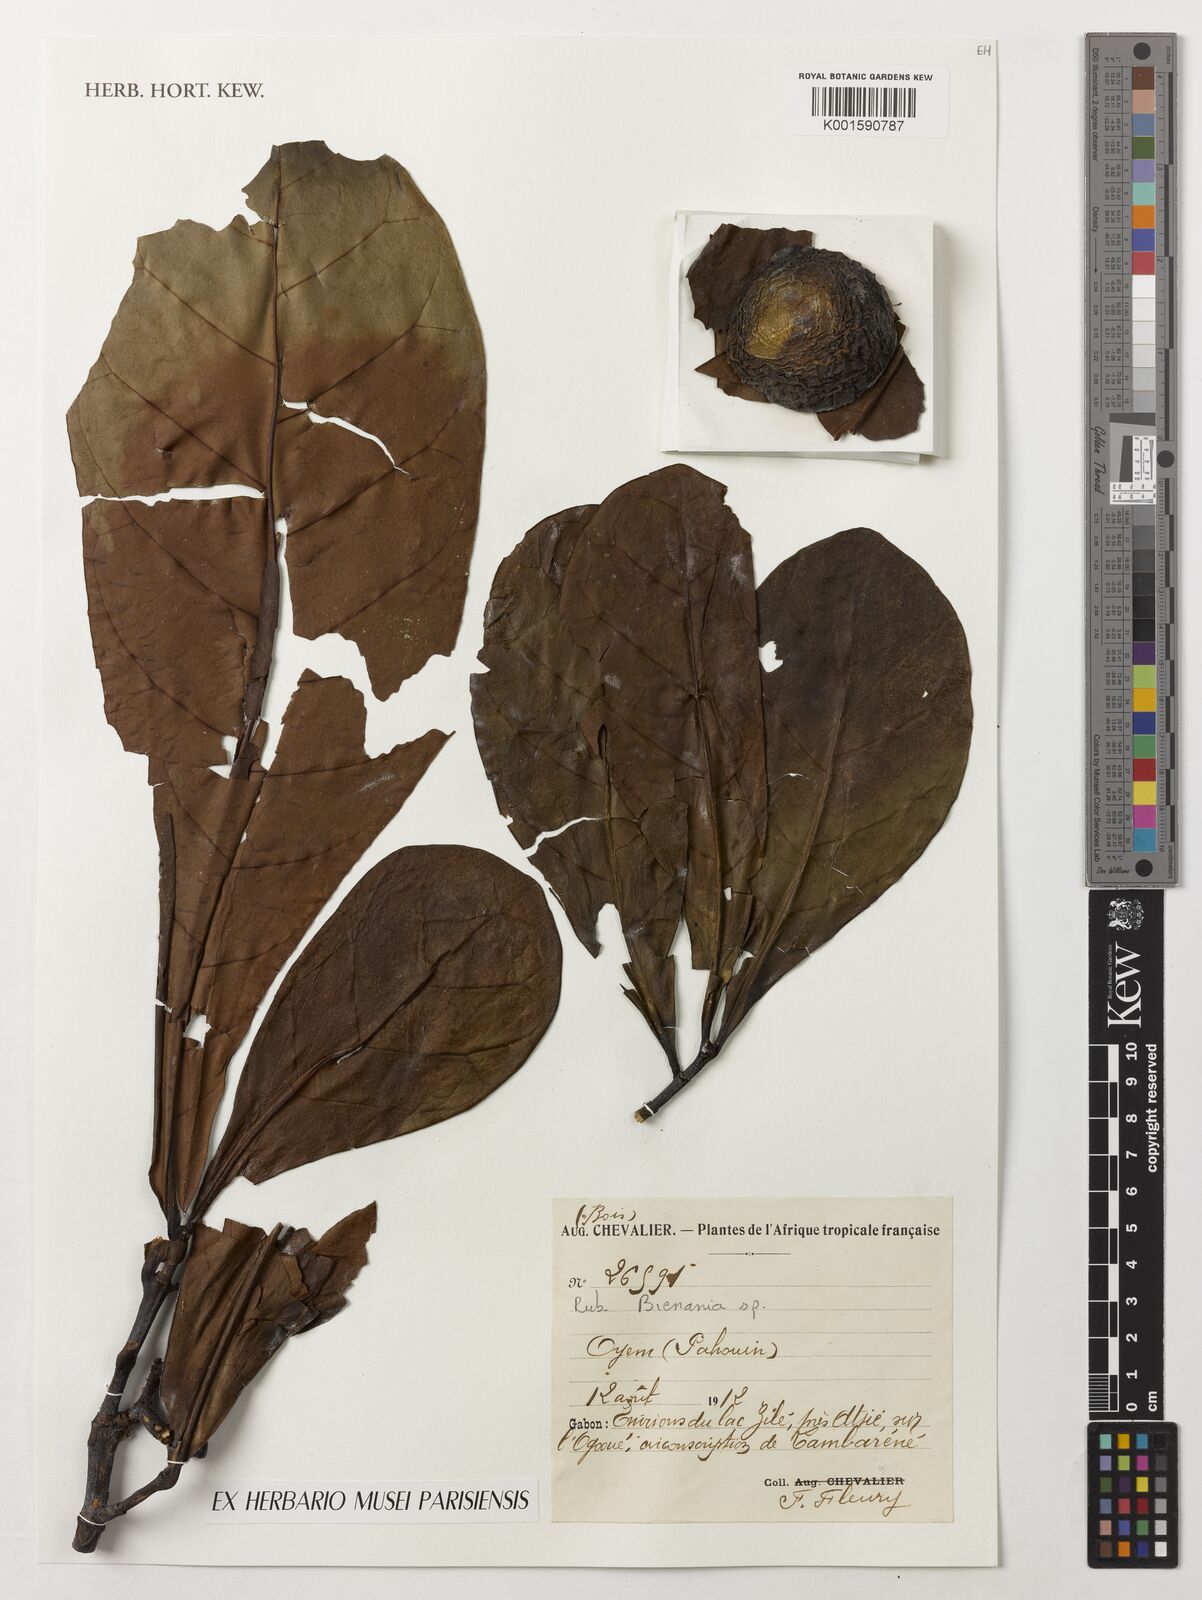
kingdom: Plantae
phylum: Tracheophyta
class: Magnoliopsida
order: Gentianales
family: Rubiaceae
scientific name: Rubiaceae
